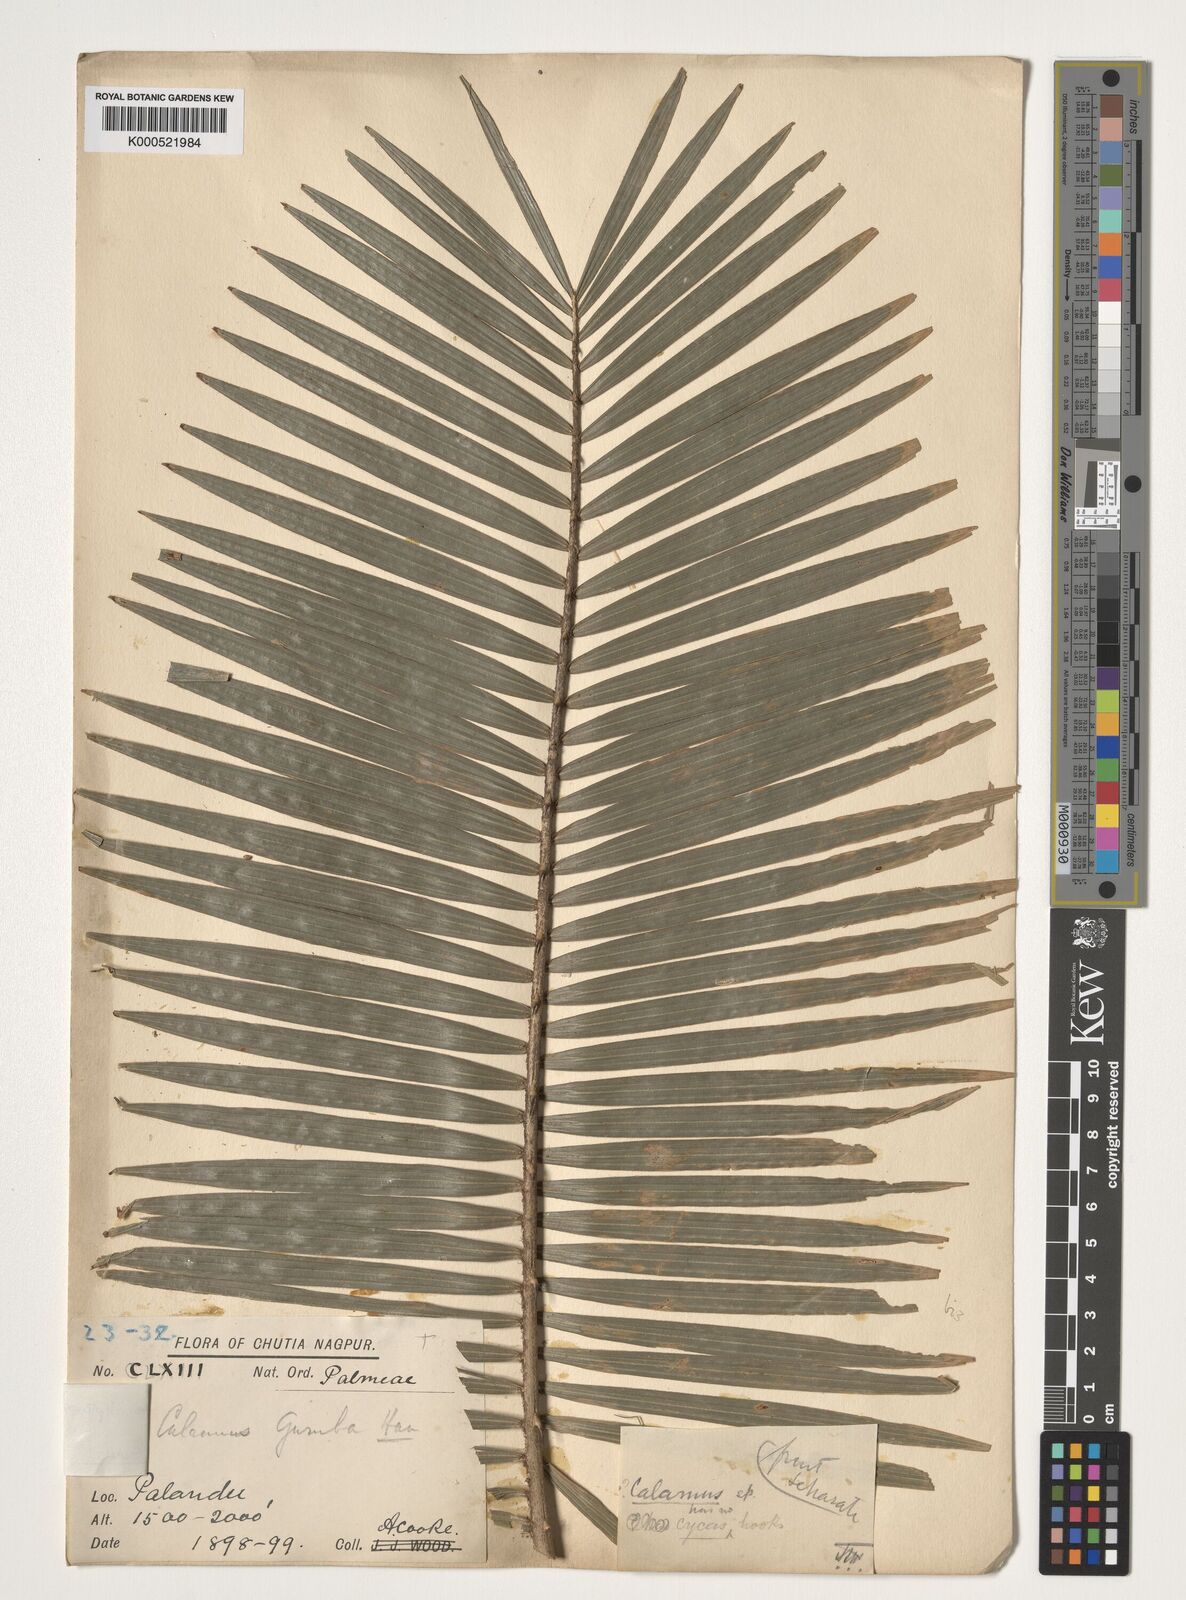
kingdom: Plantae
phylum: Tracheophyta
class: Liliopsida
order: Arecales
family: Arecaceae
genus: Calamus
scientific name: Calamus leptospadix
